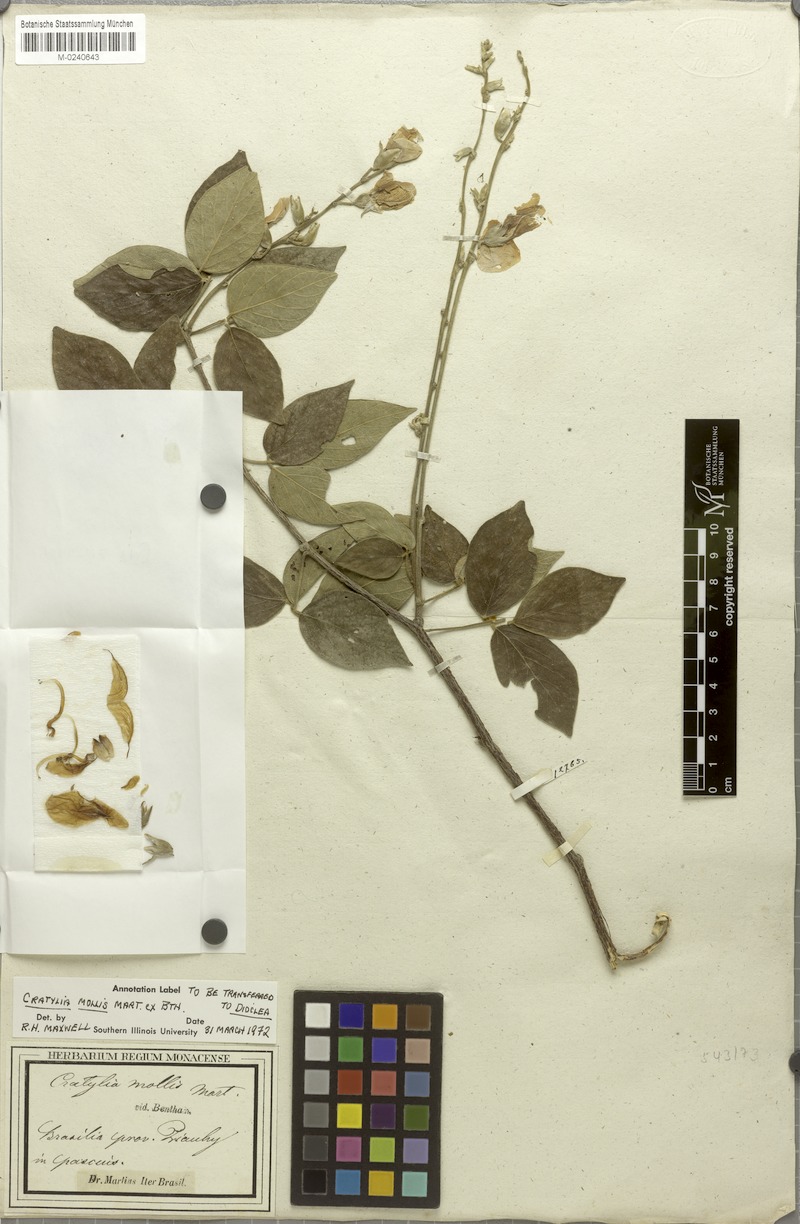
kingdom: Plantae
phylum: Tracheophyta
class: Magnoliopsida
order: Fabales
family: Fabaceae
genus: Cratylia
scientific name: Cratylia mollis
